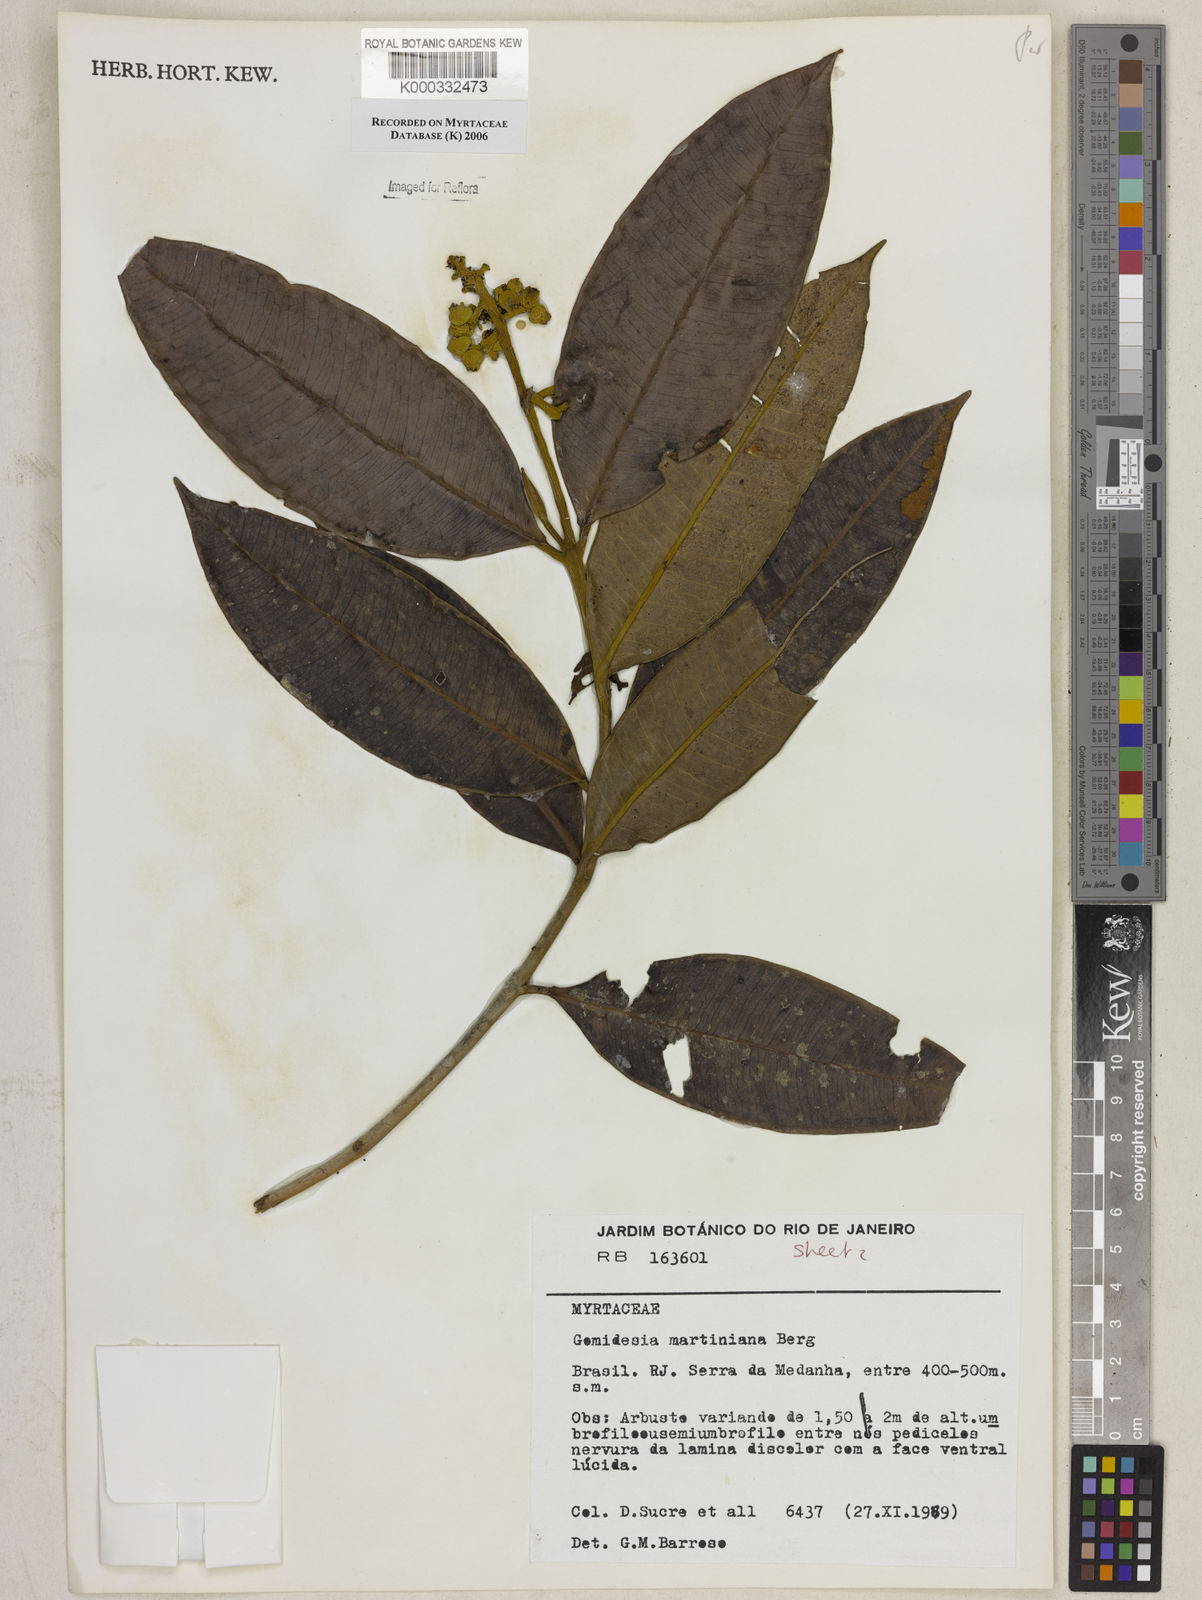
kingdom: Plantae
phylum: Tracheophyta
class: Magnoliopsida
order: Myrtales
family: Myrtaceae
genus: Myrcia
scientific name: Myrcia vittoriana
